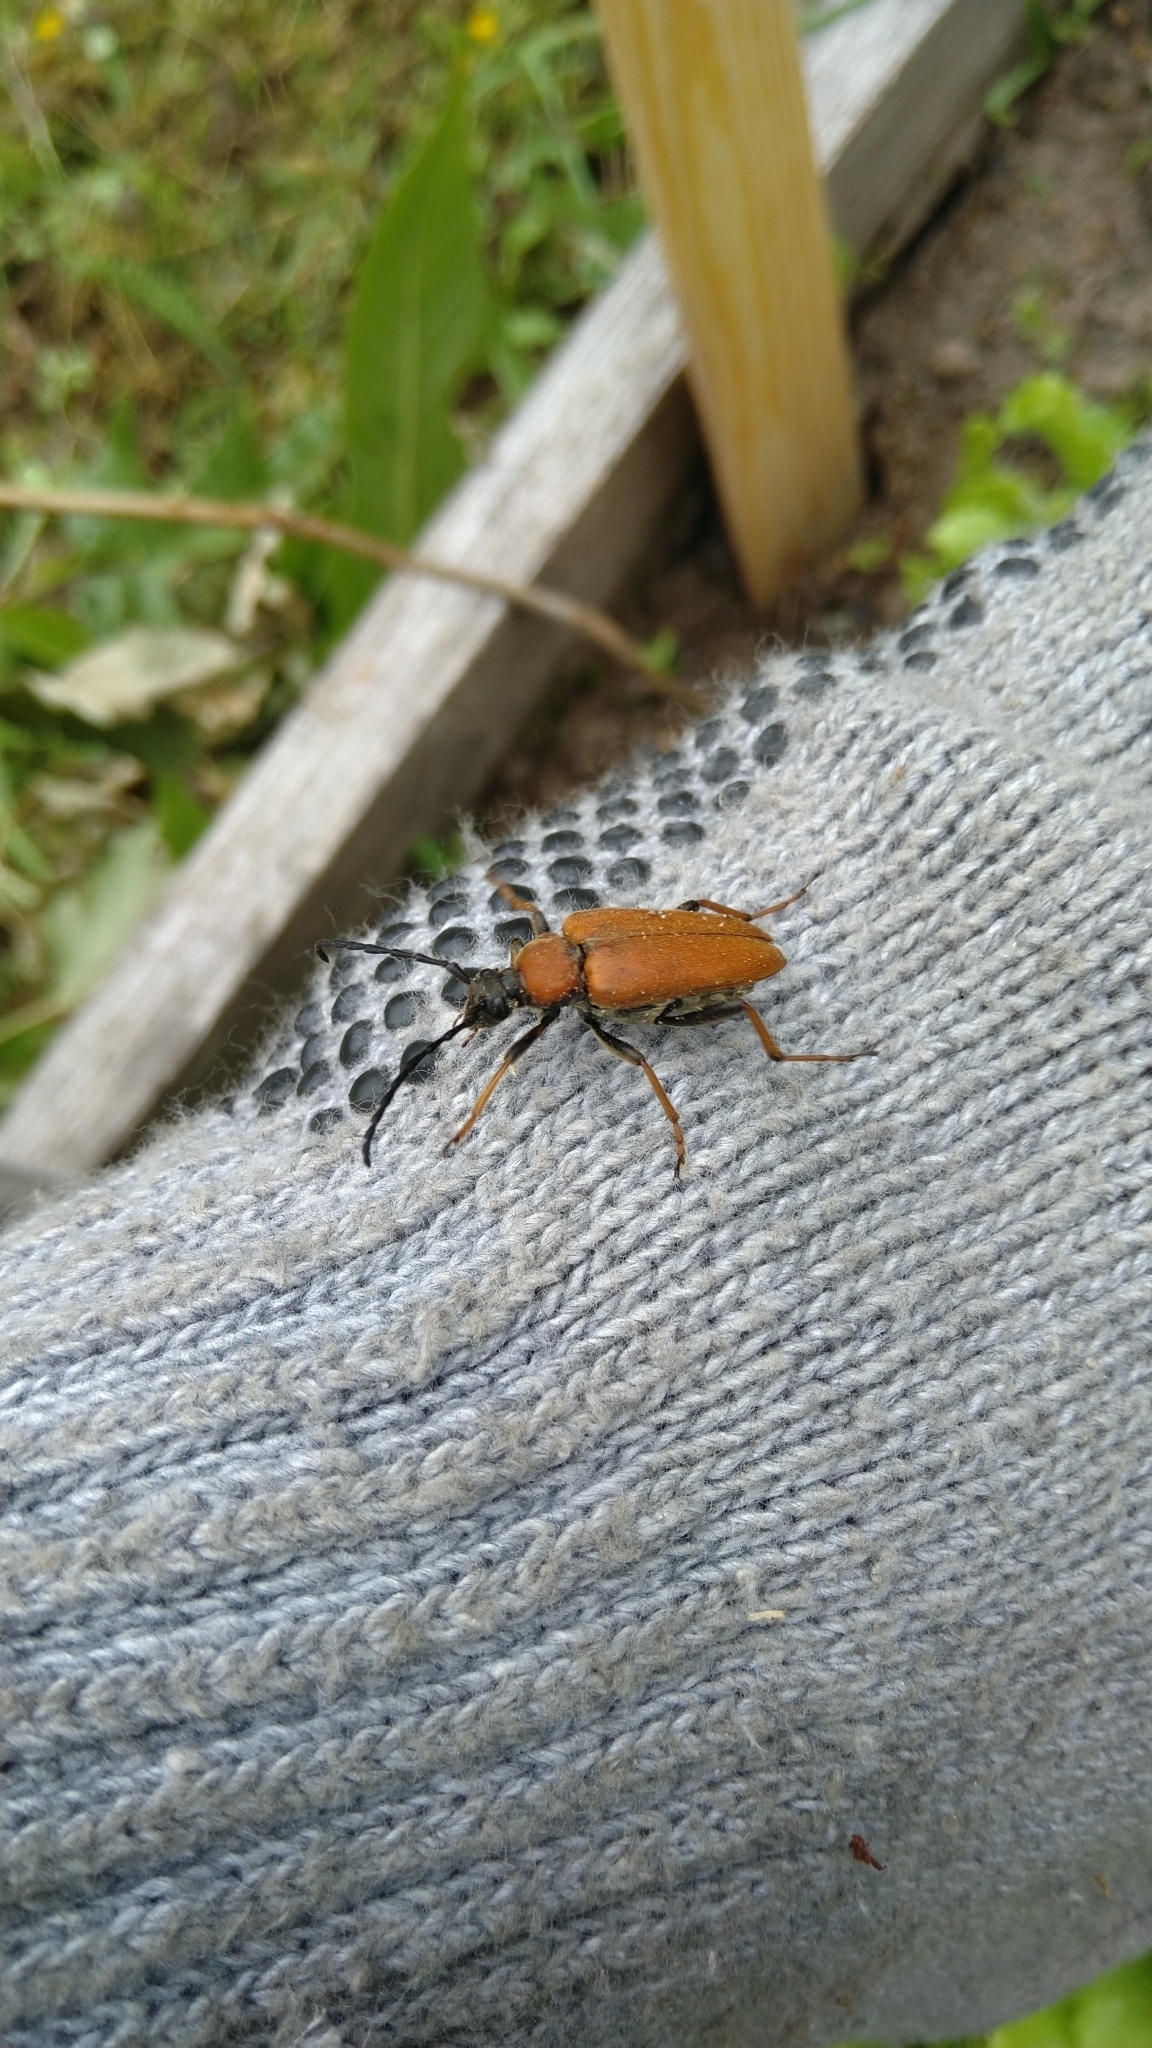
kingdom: Animalia
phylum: Arthropoda
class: Insecta
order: Coleoptera
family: Cerambycidae
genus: Stictoleptura
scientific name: Stictoleptura rubra
